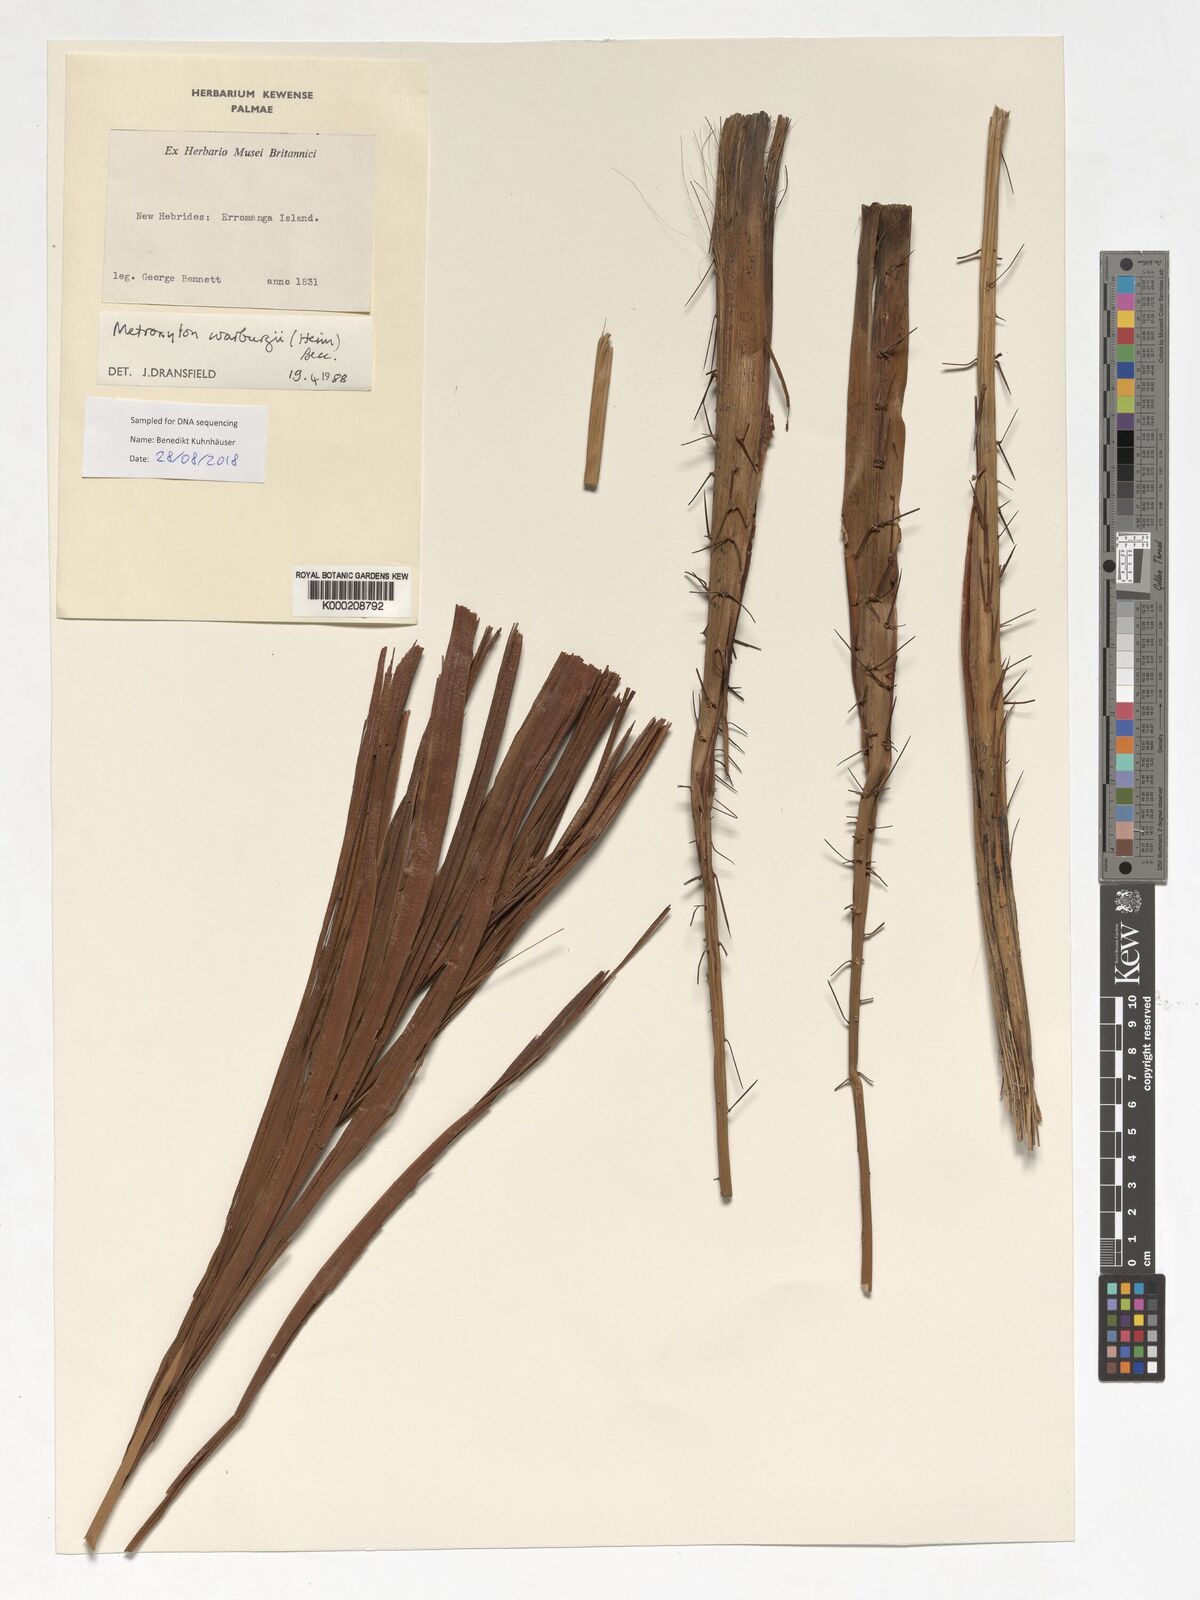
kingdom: Plantae
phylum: Tracheophyta
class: Liliopsida
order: Arecales
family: Arecaceae
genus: Metroxylon
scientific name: Metroxylon warburgii
